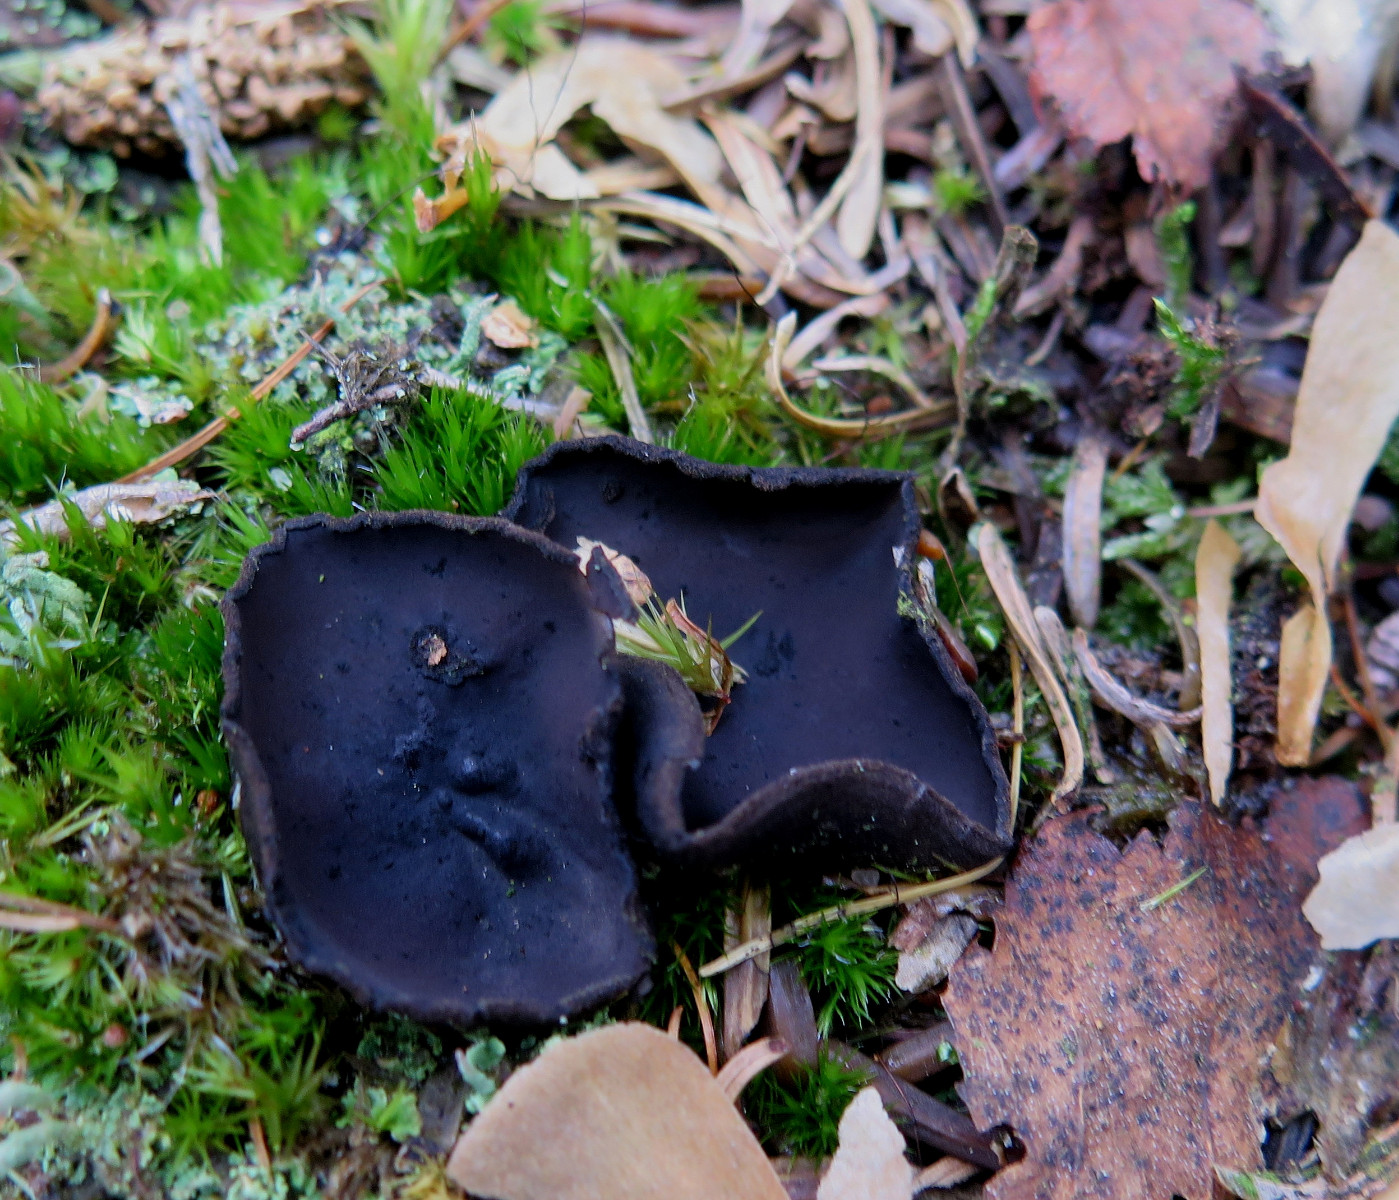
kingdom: Fungi
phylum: Ascomycota
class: Pezizomycetes
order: Pezizales
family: Sarcosomataceae
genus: Pseudoplectania
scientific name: Pseudoplectania nigrella
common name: almindelig sortbæger
